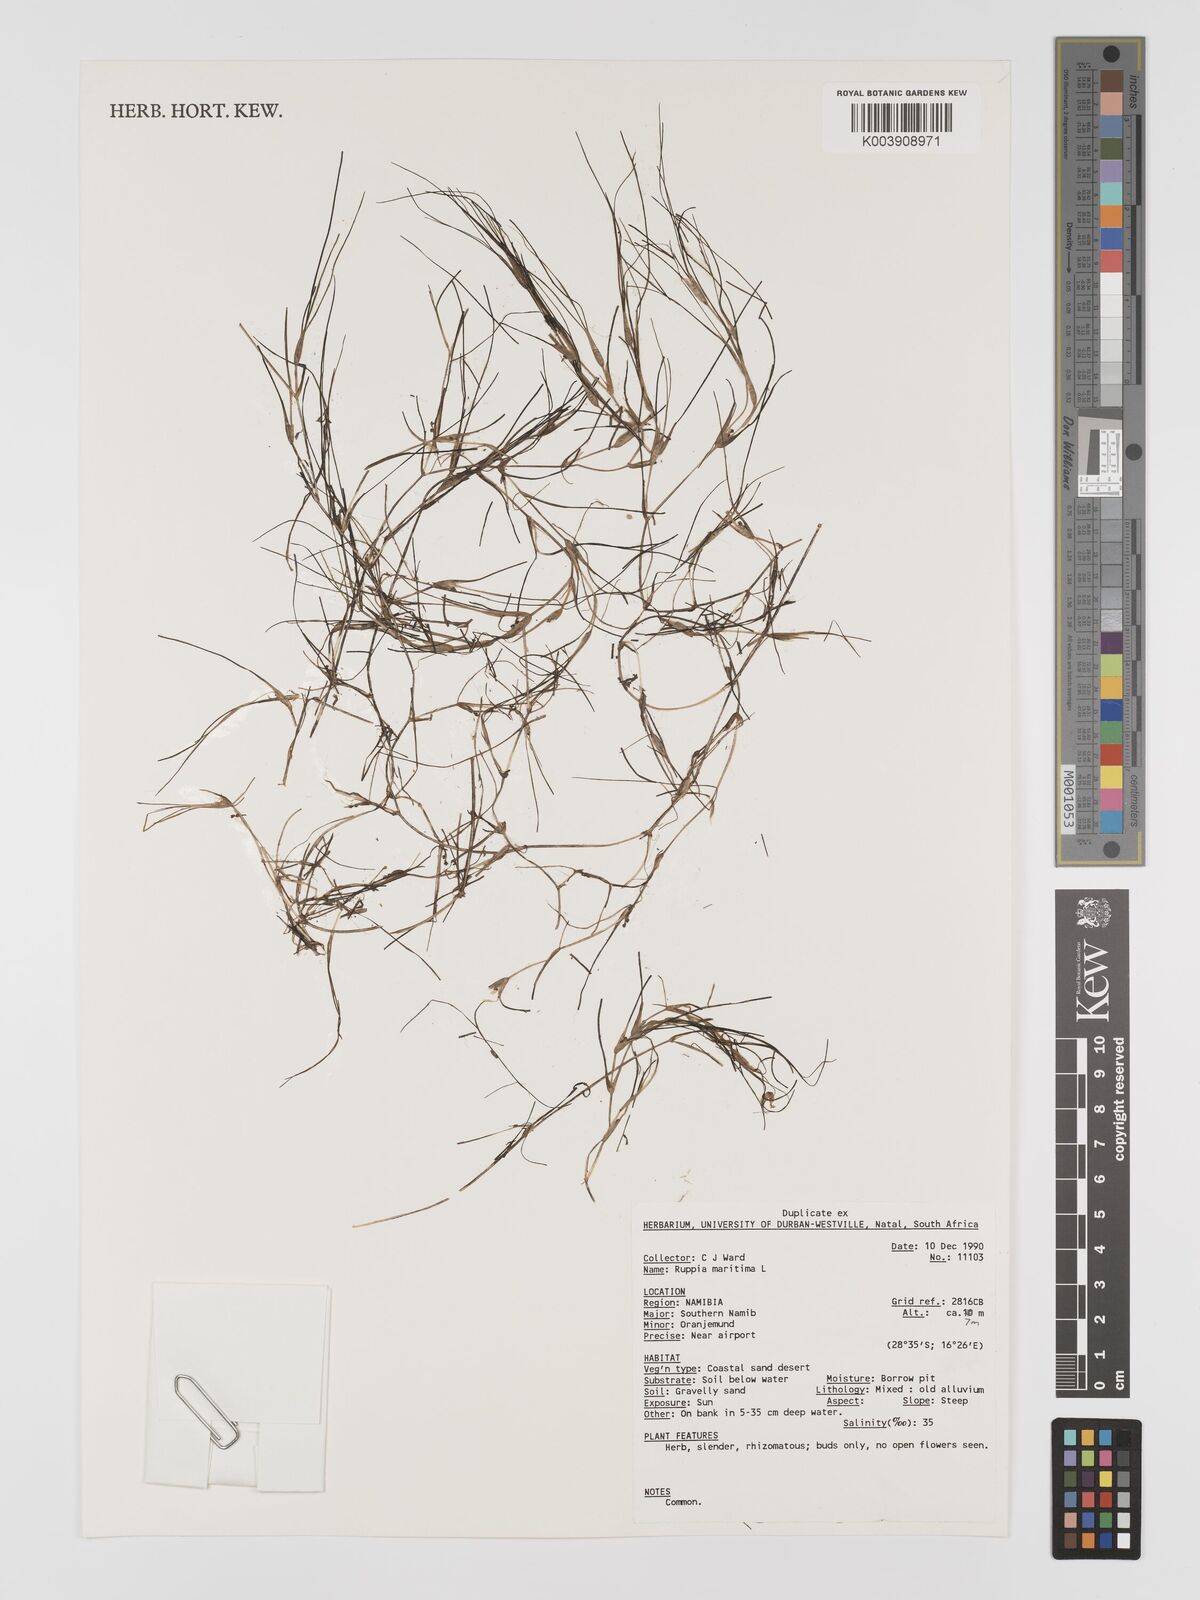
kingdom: Plantae
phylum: Tracheophyta
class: Liliopsida
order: Alismatales
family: Ruppiaceae
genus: Ruppia
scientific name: Ruppia maritima
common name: Beaked tasselweed
